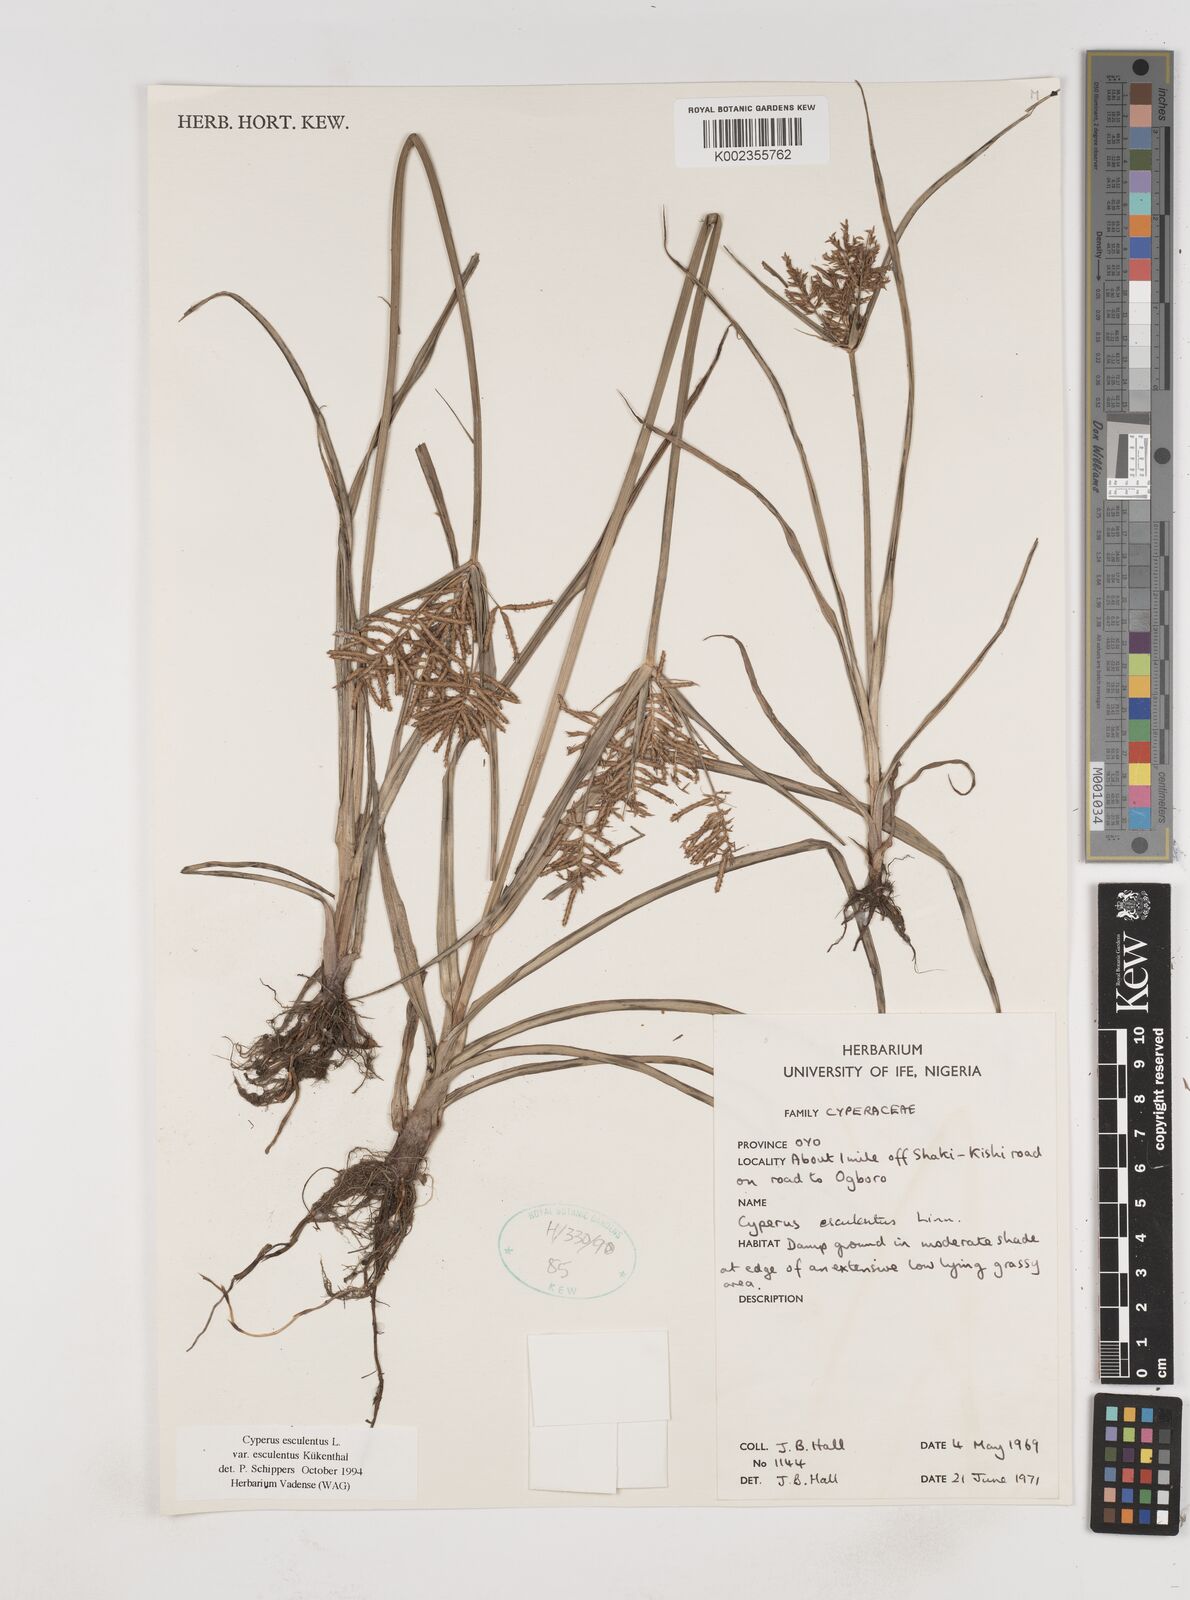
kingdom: Plantae
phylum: Tracheophyta
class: Liliopsida
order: Poales
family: Cyperaceae
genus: Cyperus
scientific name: Cyperus esculentus
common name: Yellow nutsedge
